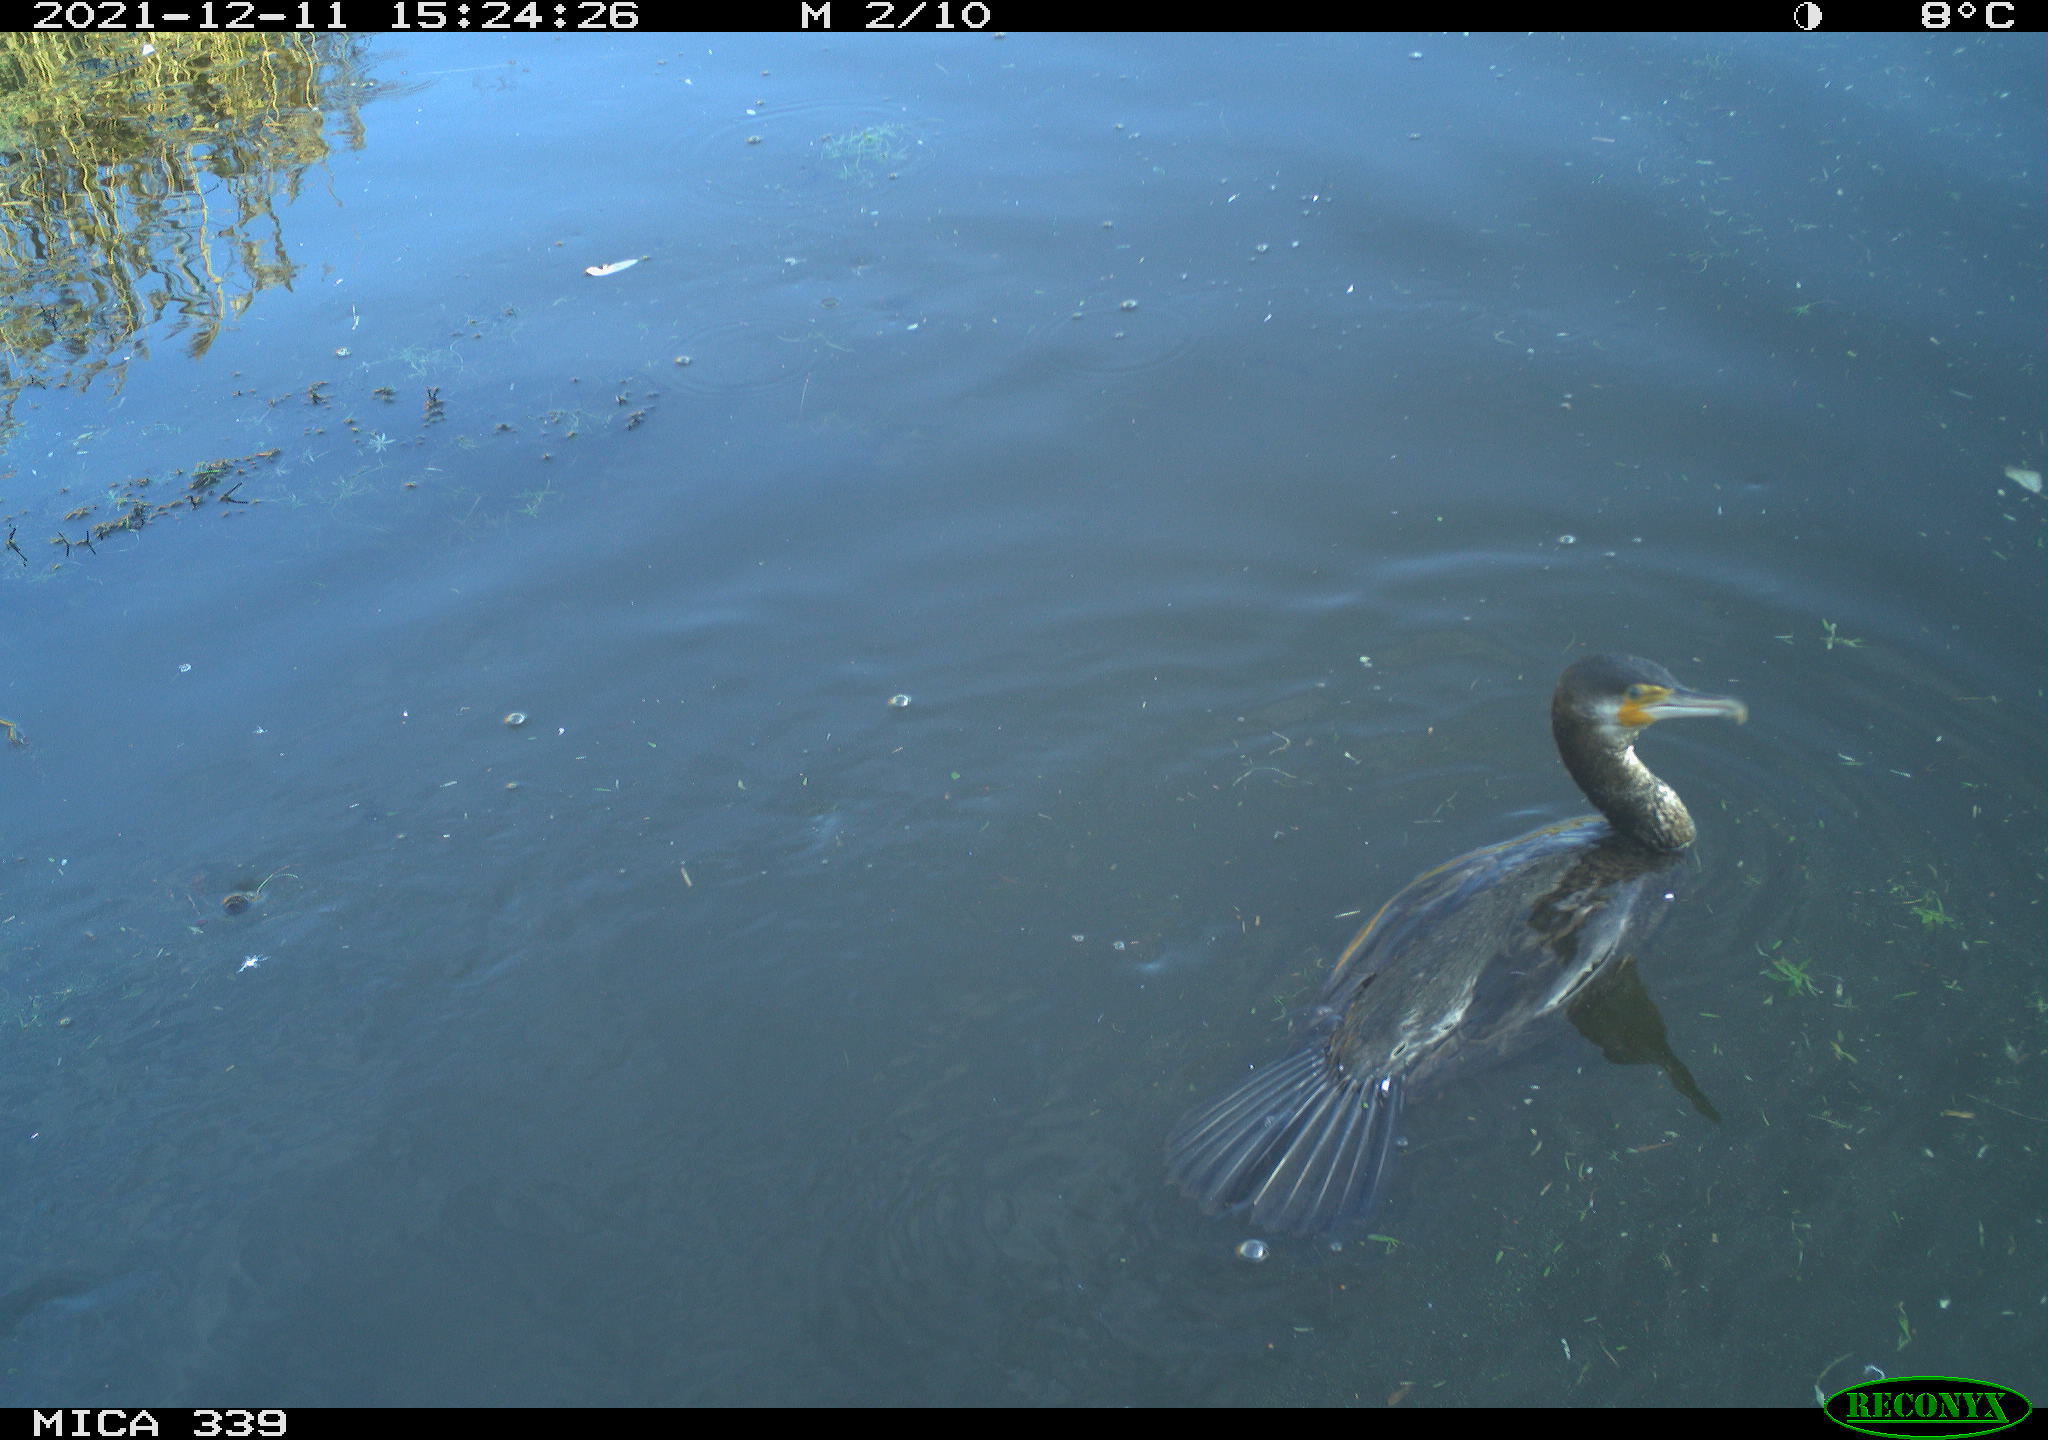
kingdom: Animalia
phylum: Chordata
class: Aves
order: Suliformes
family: Phalacrocoracidae
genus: Phalacrocorax
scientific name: Phalacrocorax carbo
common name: Great cormorant
